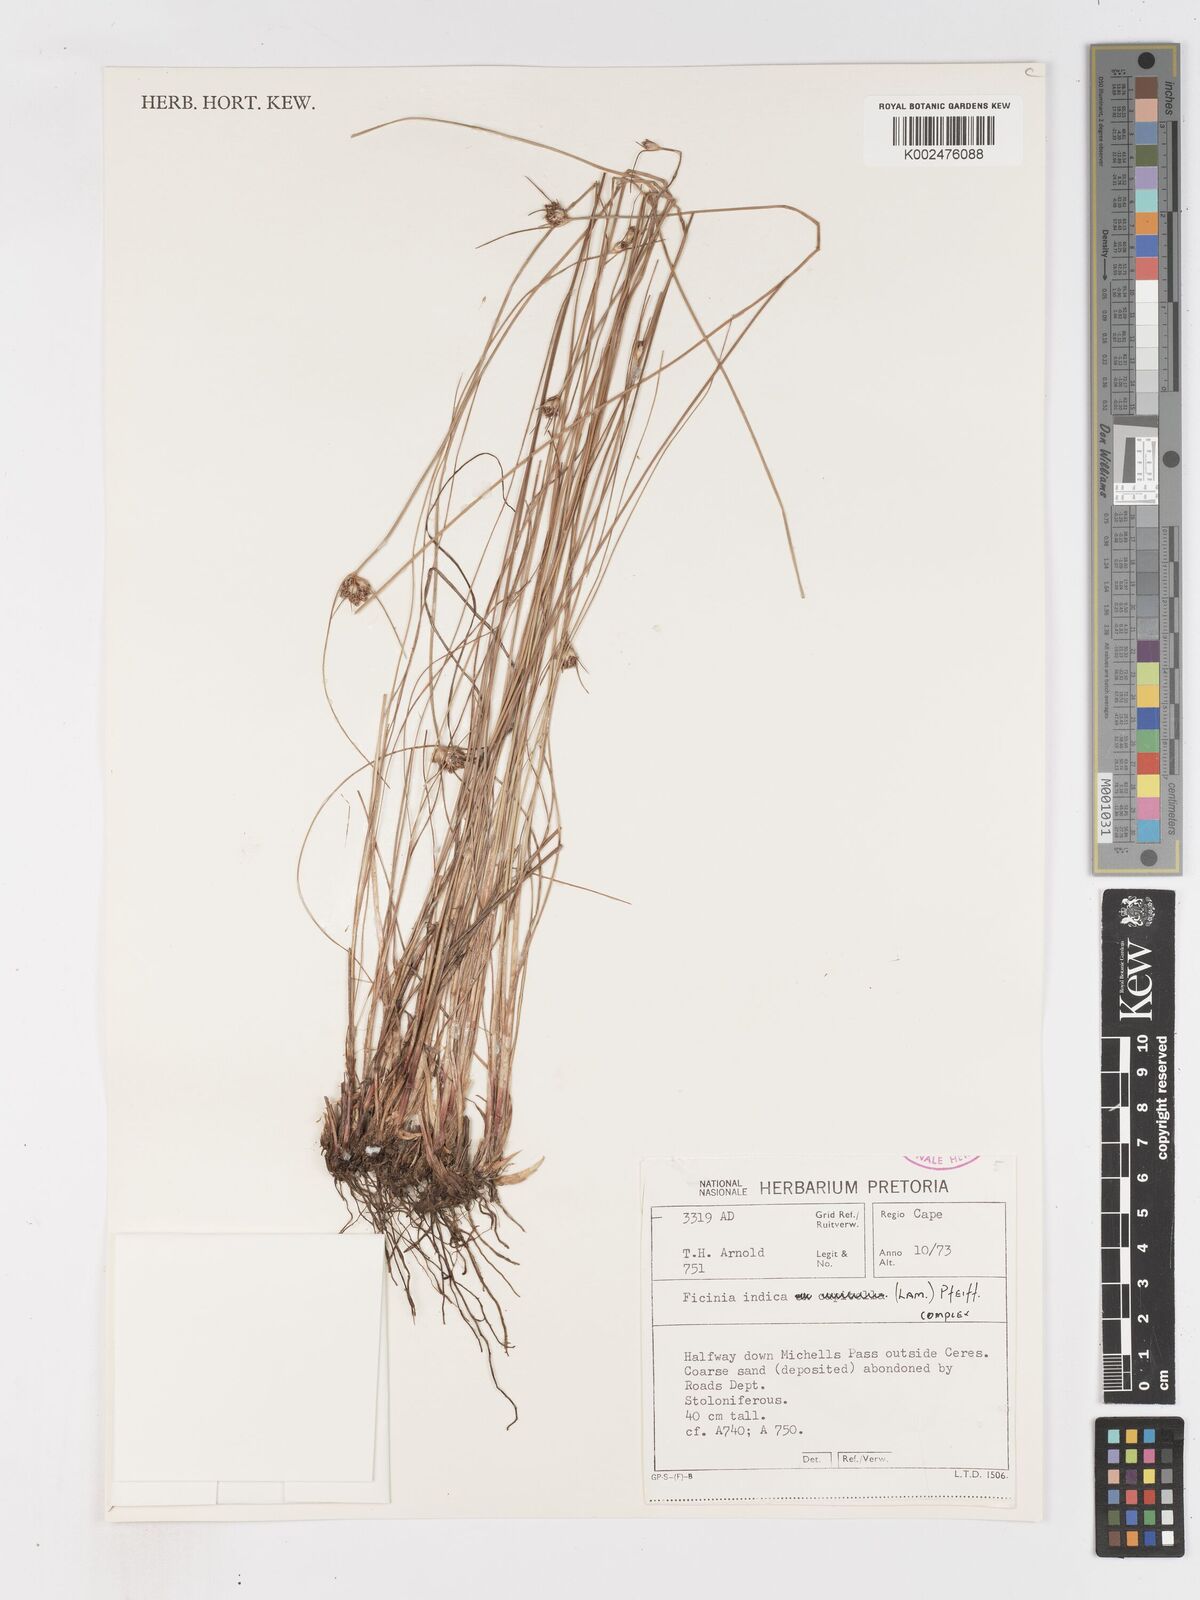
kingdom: Plantae
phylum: Tracheophyta
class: Liliopsida
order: Poales
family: Cyperaceae
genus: Ficinia
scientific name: Ficinia indica
